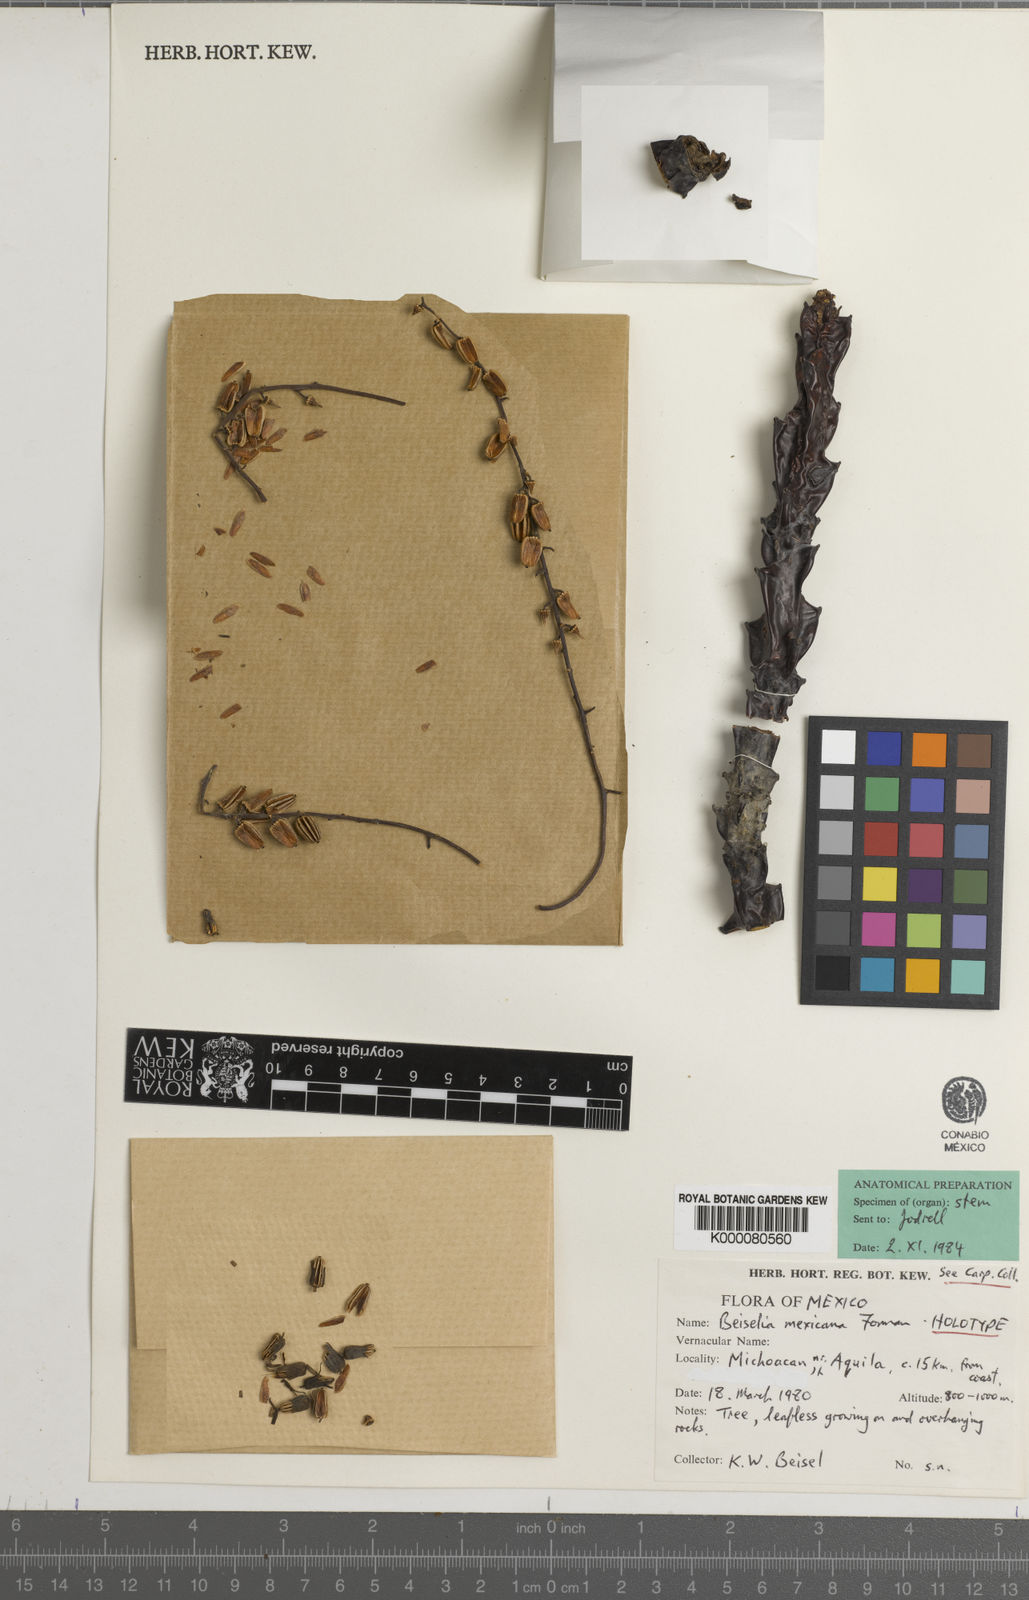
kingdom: Plantae
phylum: Tracheophyta
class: Magnoliopsida
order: Sapindales
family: Burseraceae
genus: Beiselia
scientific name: Beiselia mexicana
